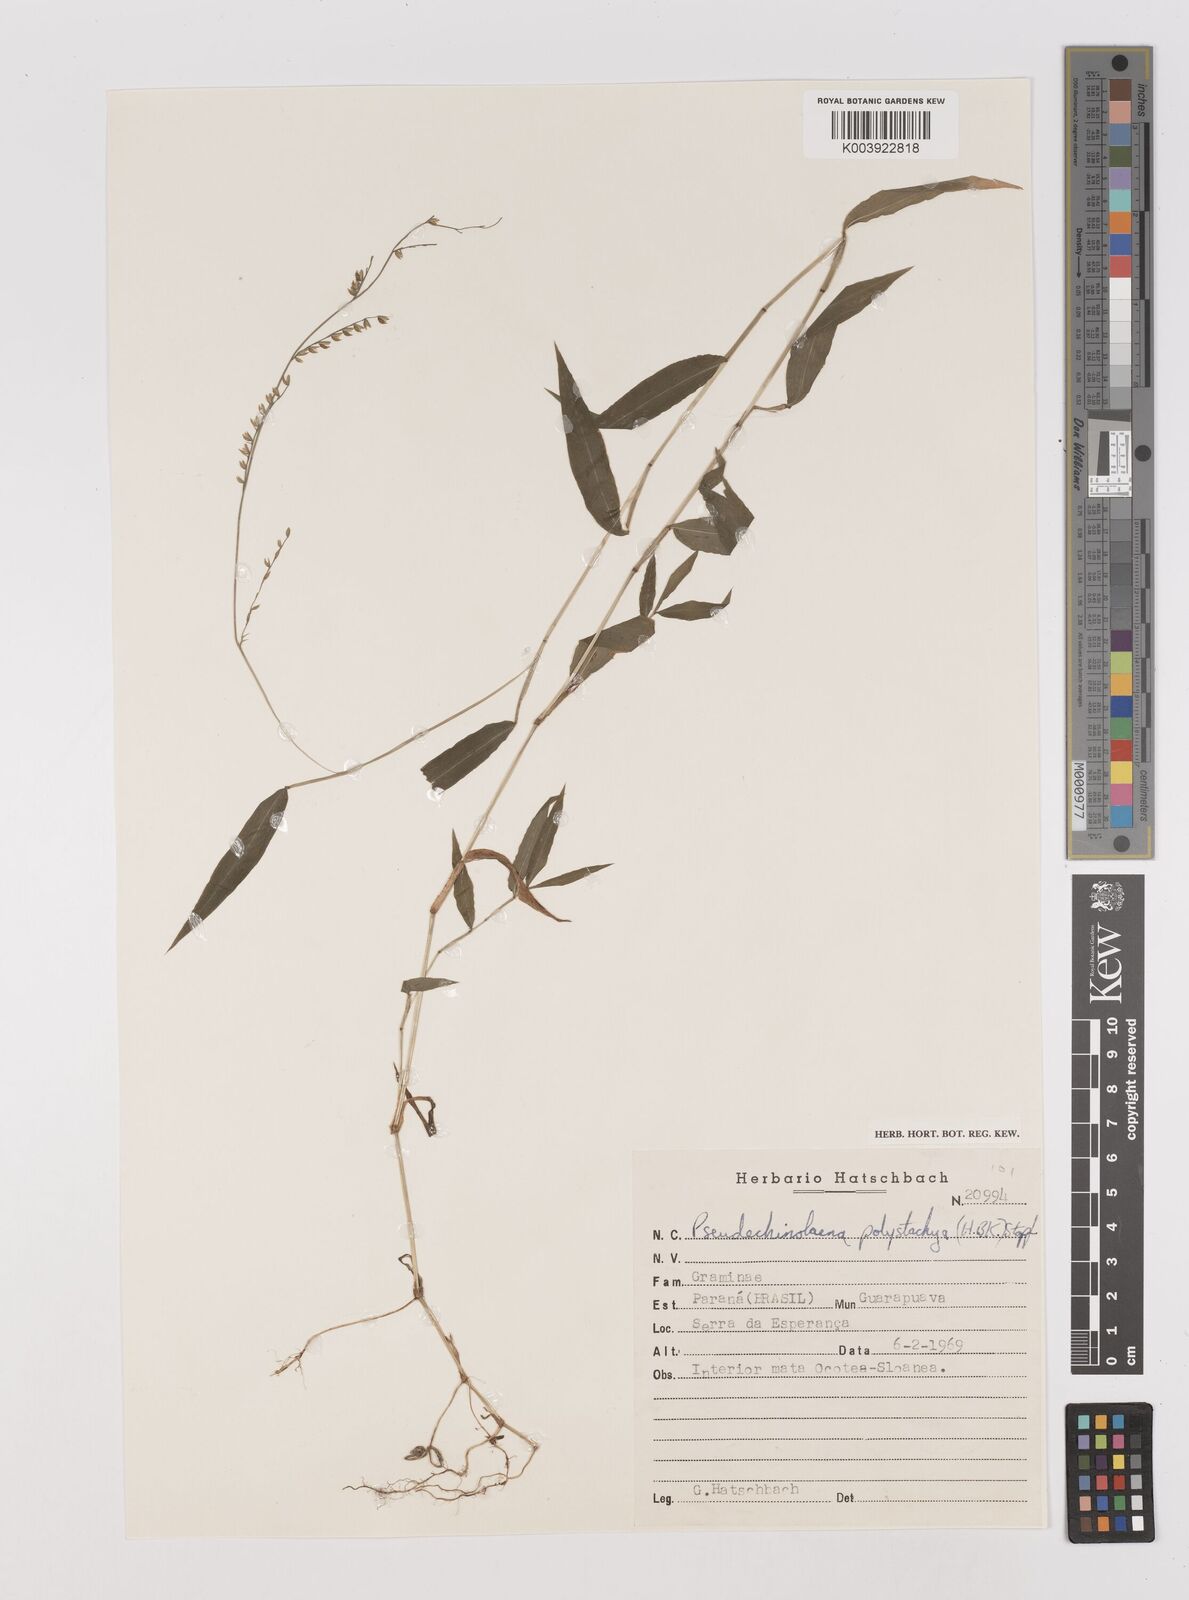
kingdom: Plantae
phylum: Tracheophyta
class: Liliopsida
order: Poales
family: Poaceae
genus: Pseudechinolaena
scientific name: Pseudechinolaena polystachya
